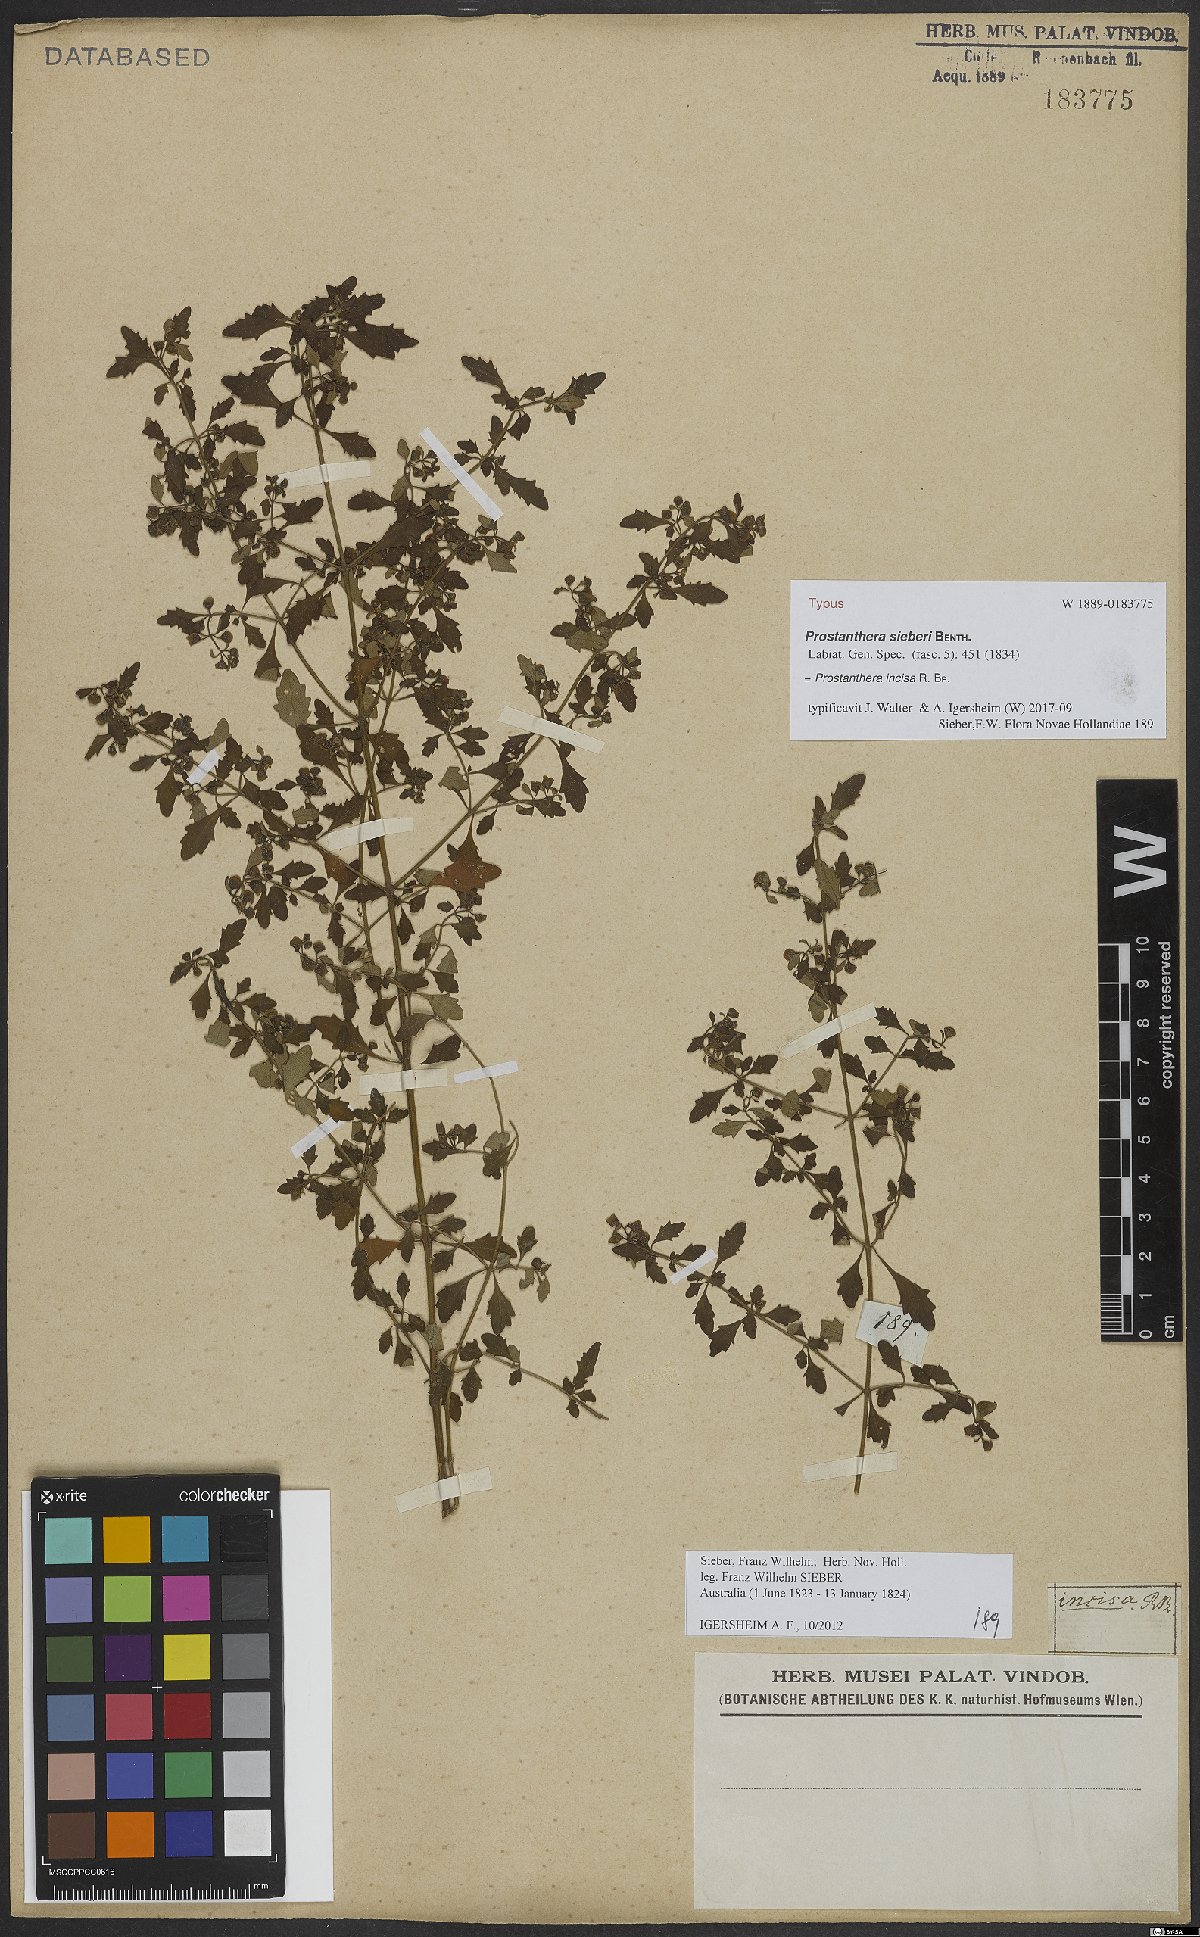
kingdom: Plantae
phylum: Tracheophyta
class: Magnoliopsida
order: Lamiales
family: Lamiaceae
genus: Prostanthera
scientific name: Prostanthera incisa
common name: Cut-leaf mintbush
